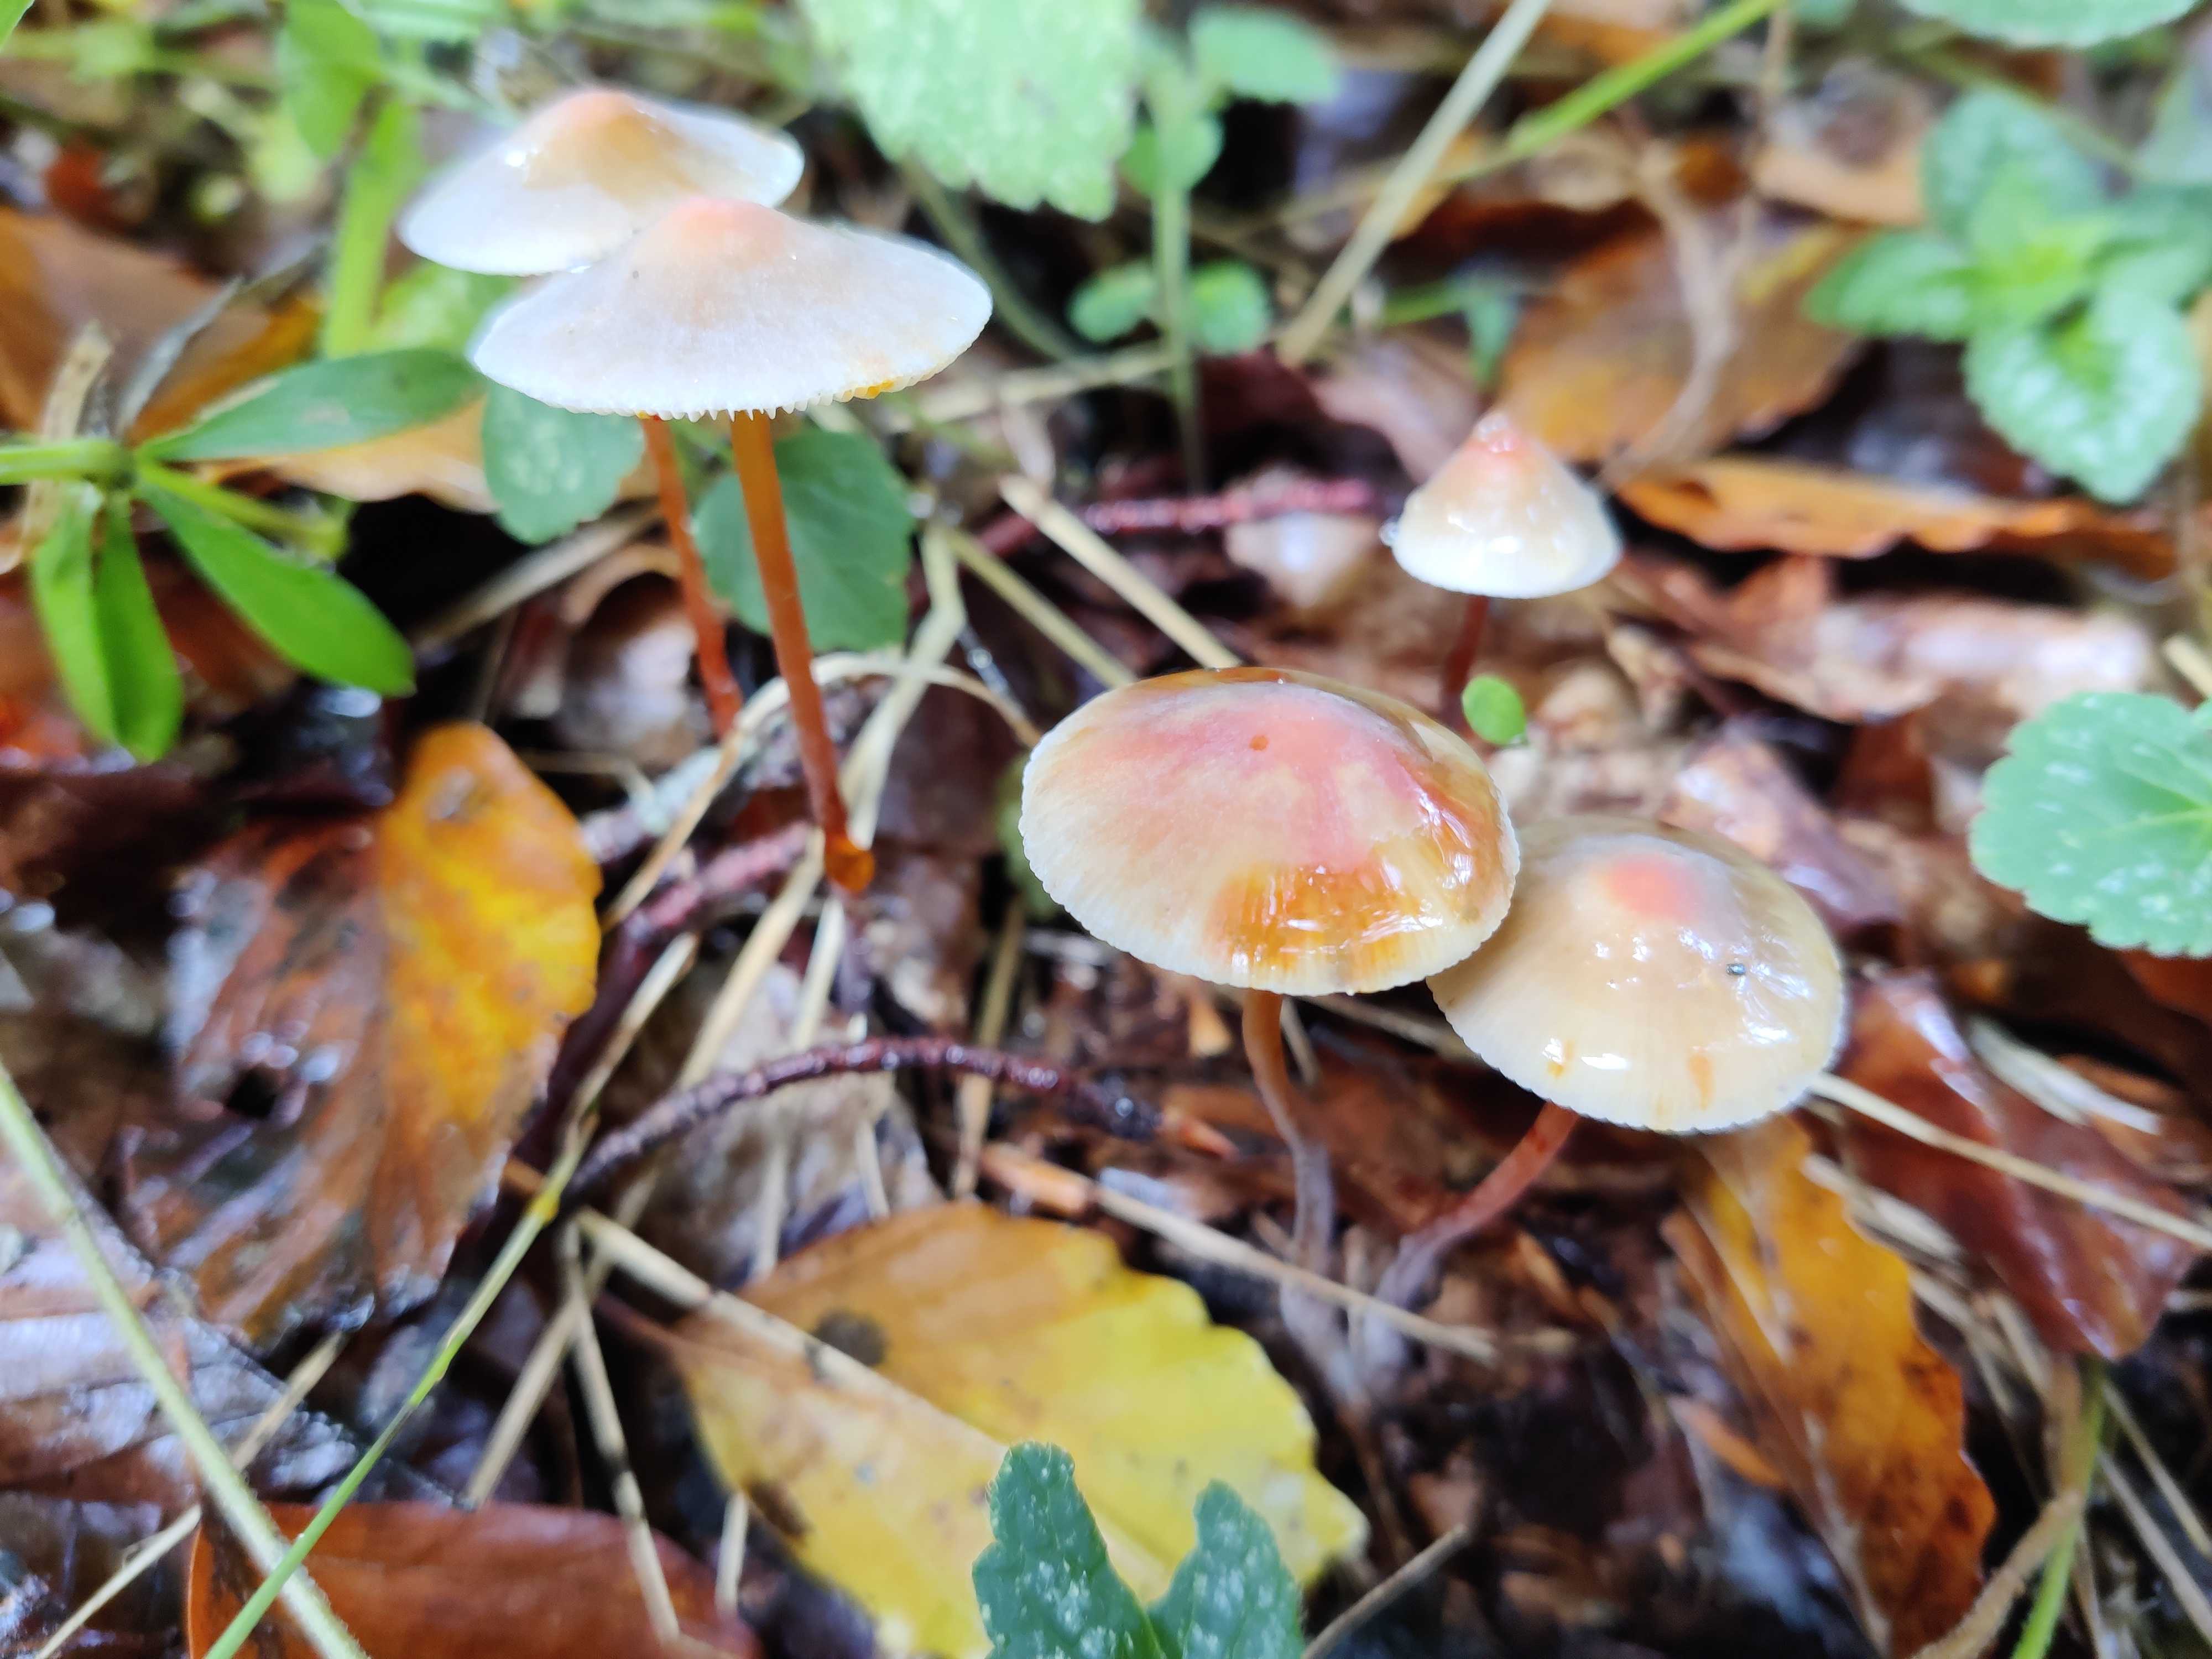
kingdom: Fungi
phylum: Basidiomycota
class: Agaricomycetes
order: Agaricales
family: Mycenaceae
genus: Mycena
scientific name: Mycena crocata
